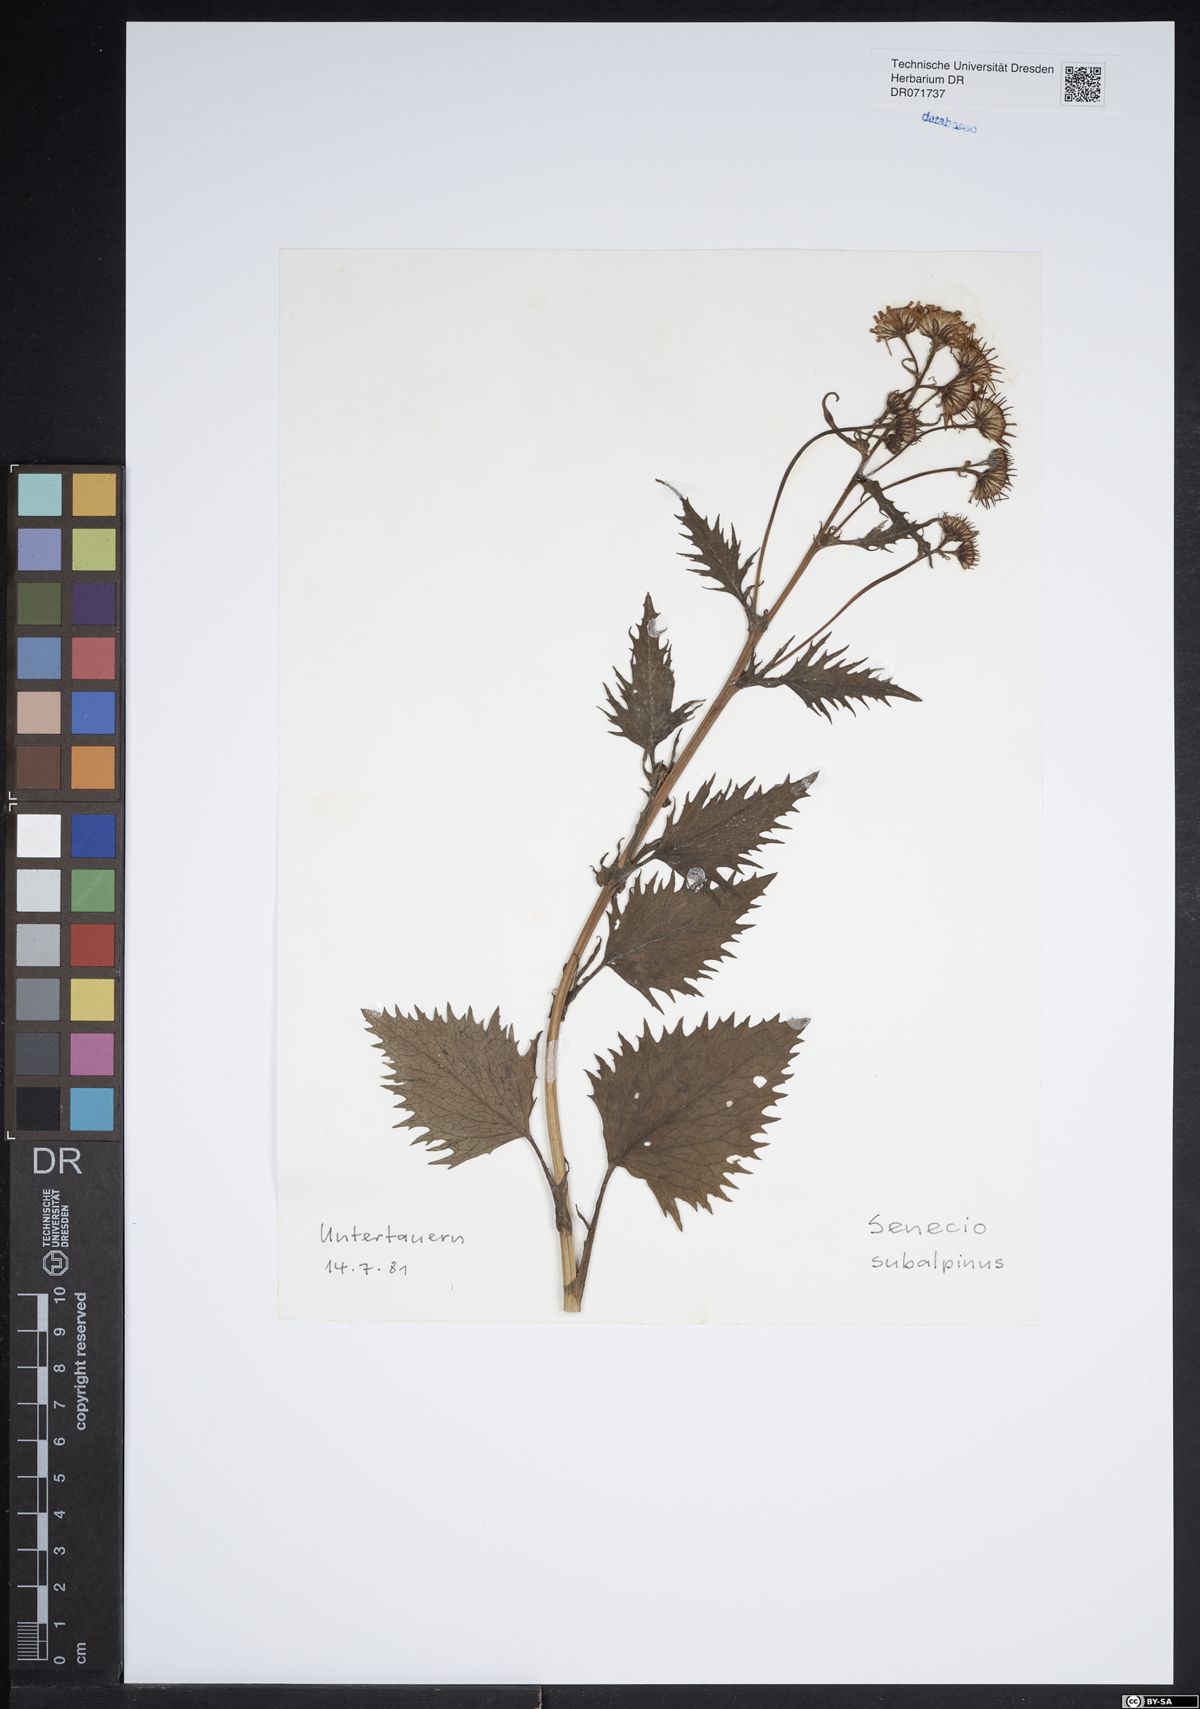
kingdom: Plantae
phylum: Tracheophyta
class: Magnoliopsida
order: Asterales
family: Asteraceae
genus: Jacobaea
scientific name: Jacobaea subalpina
